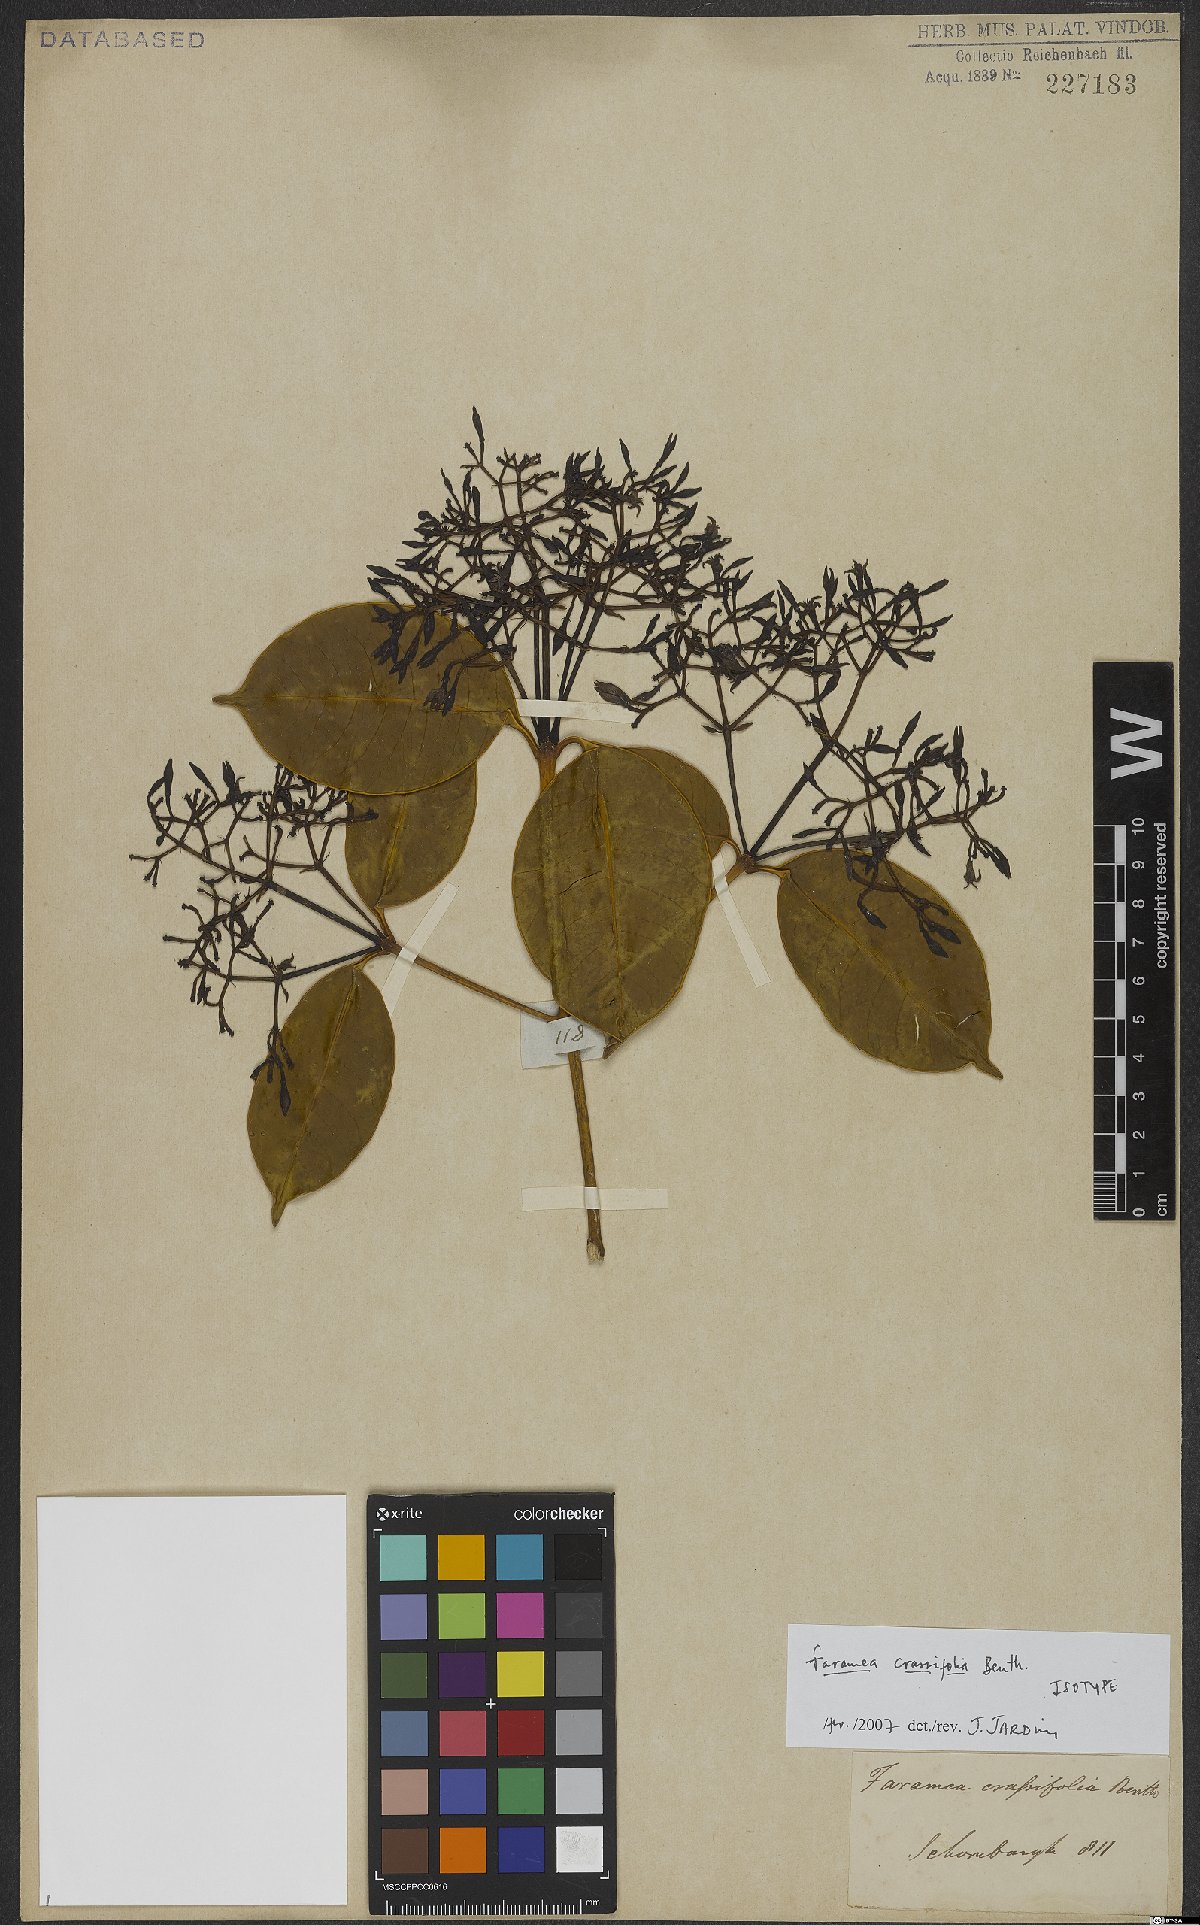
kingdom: Plantae
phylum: Tracheophyta
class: Magnoliopsida
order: Gentianales
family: Rubiaceae
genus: Faramea
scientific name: Faramea crassifolia
